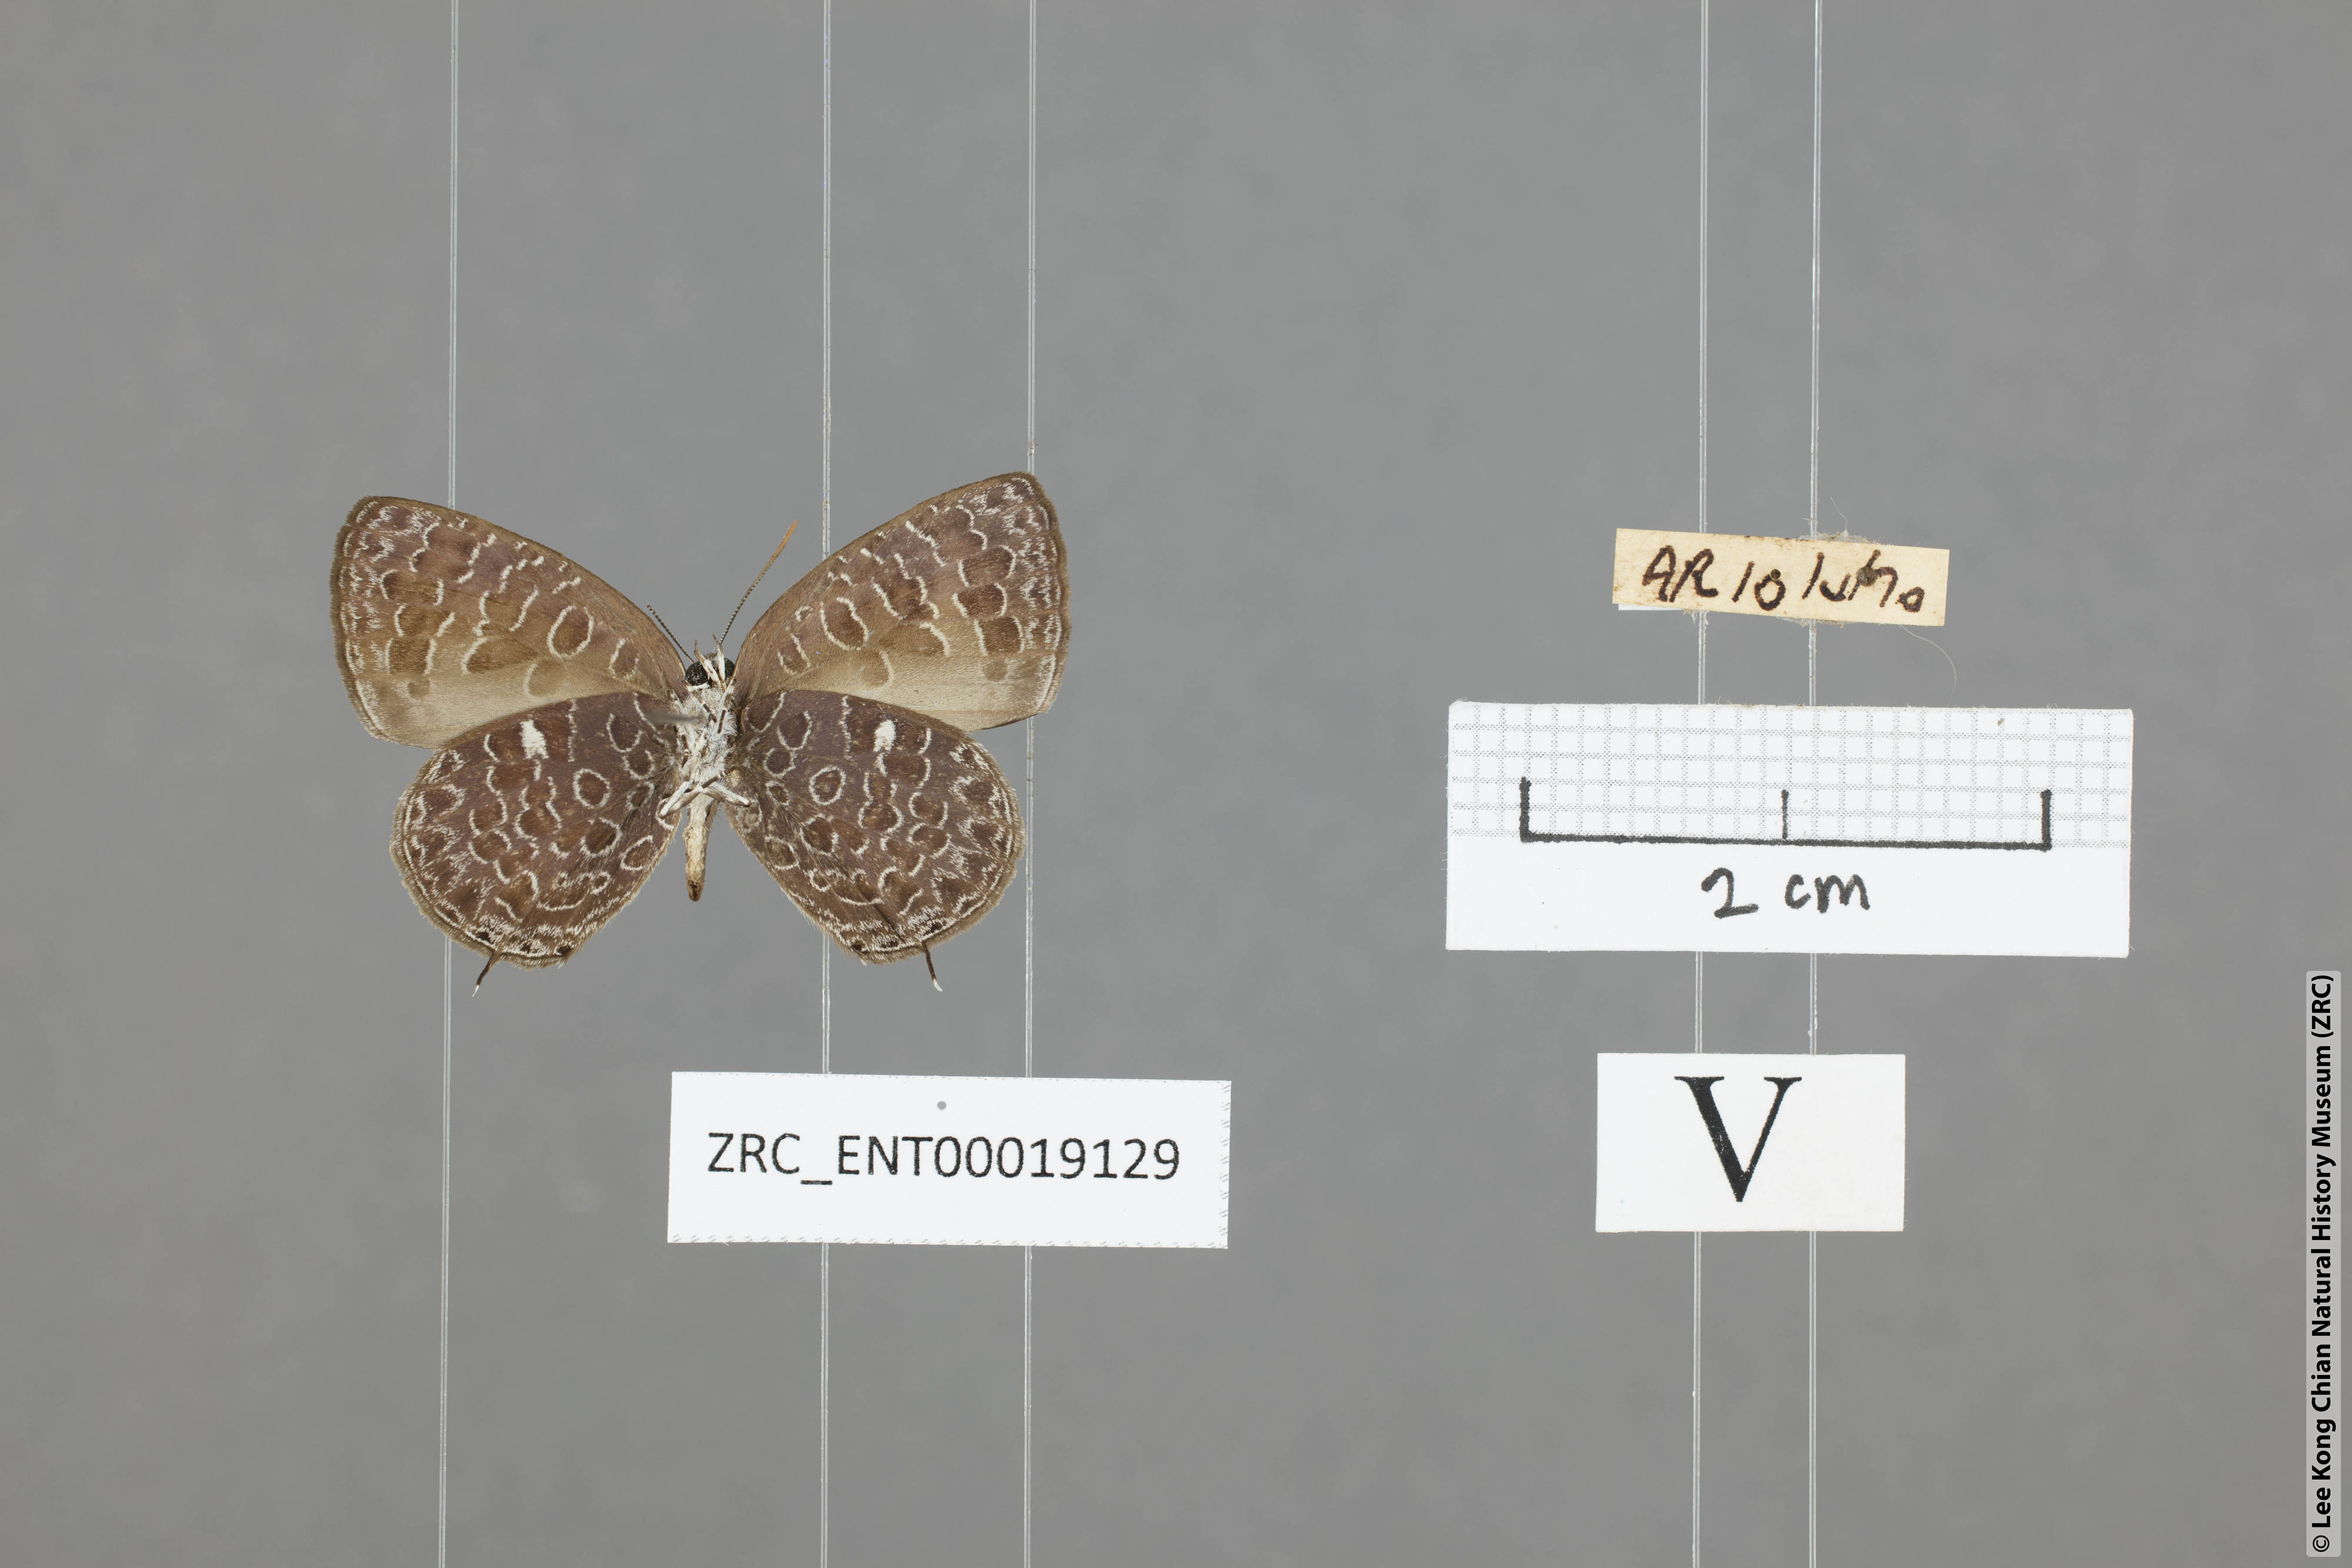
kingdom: Animalia
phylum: Arthropoda
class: Insecta
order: Lepidoptera
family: Lycaenidae
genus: Arhopala
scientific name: Arhopala ammonides
